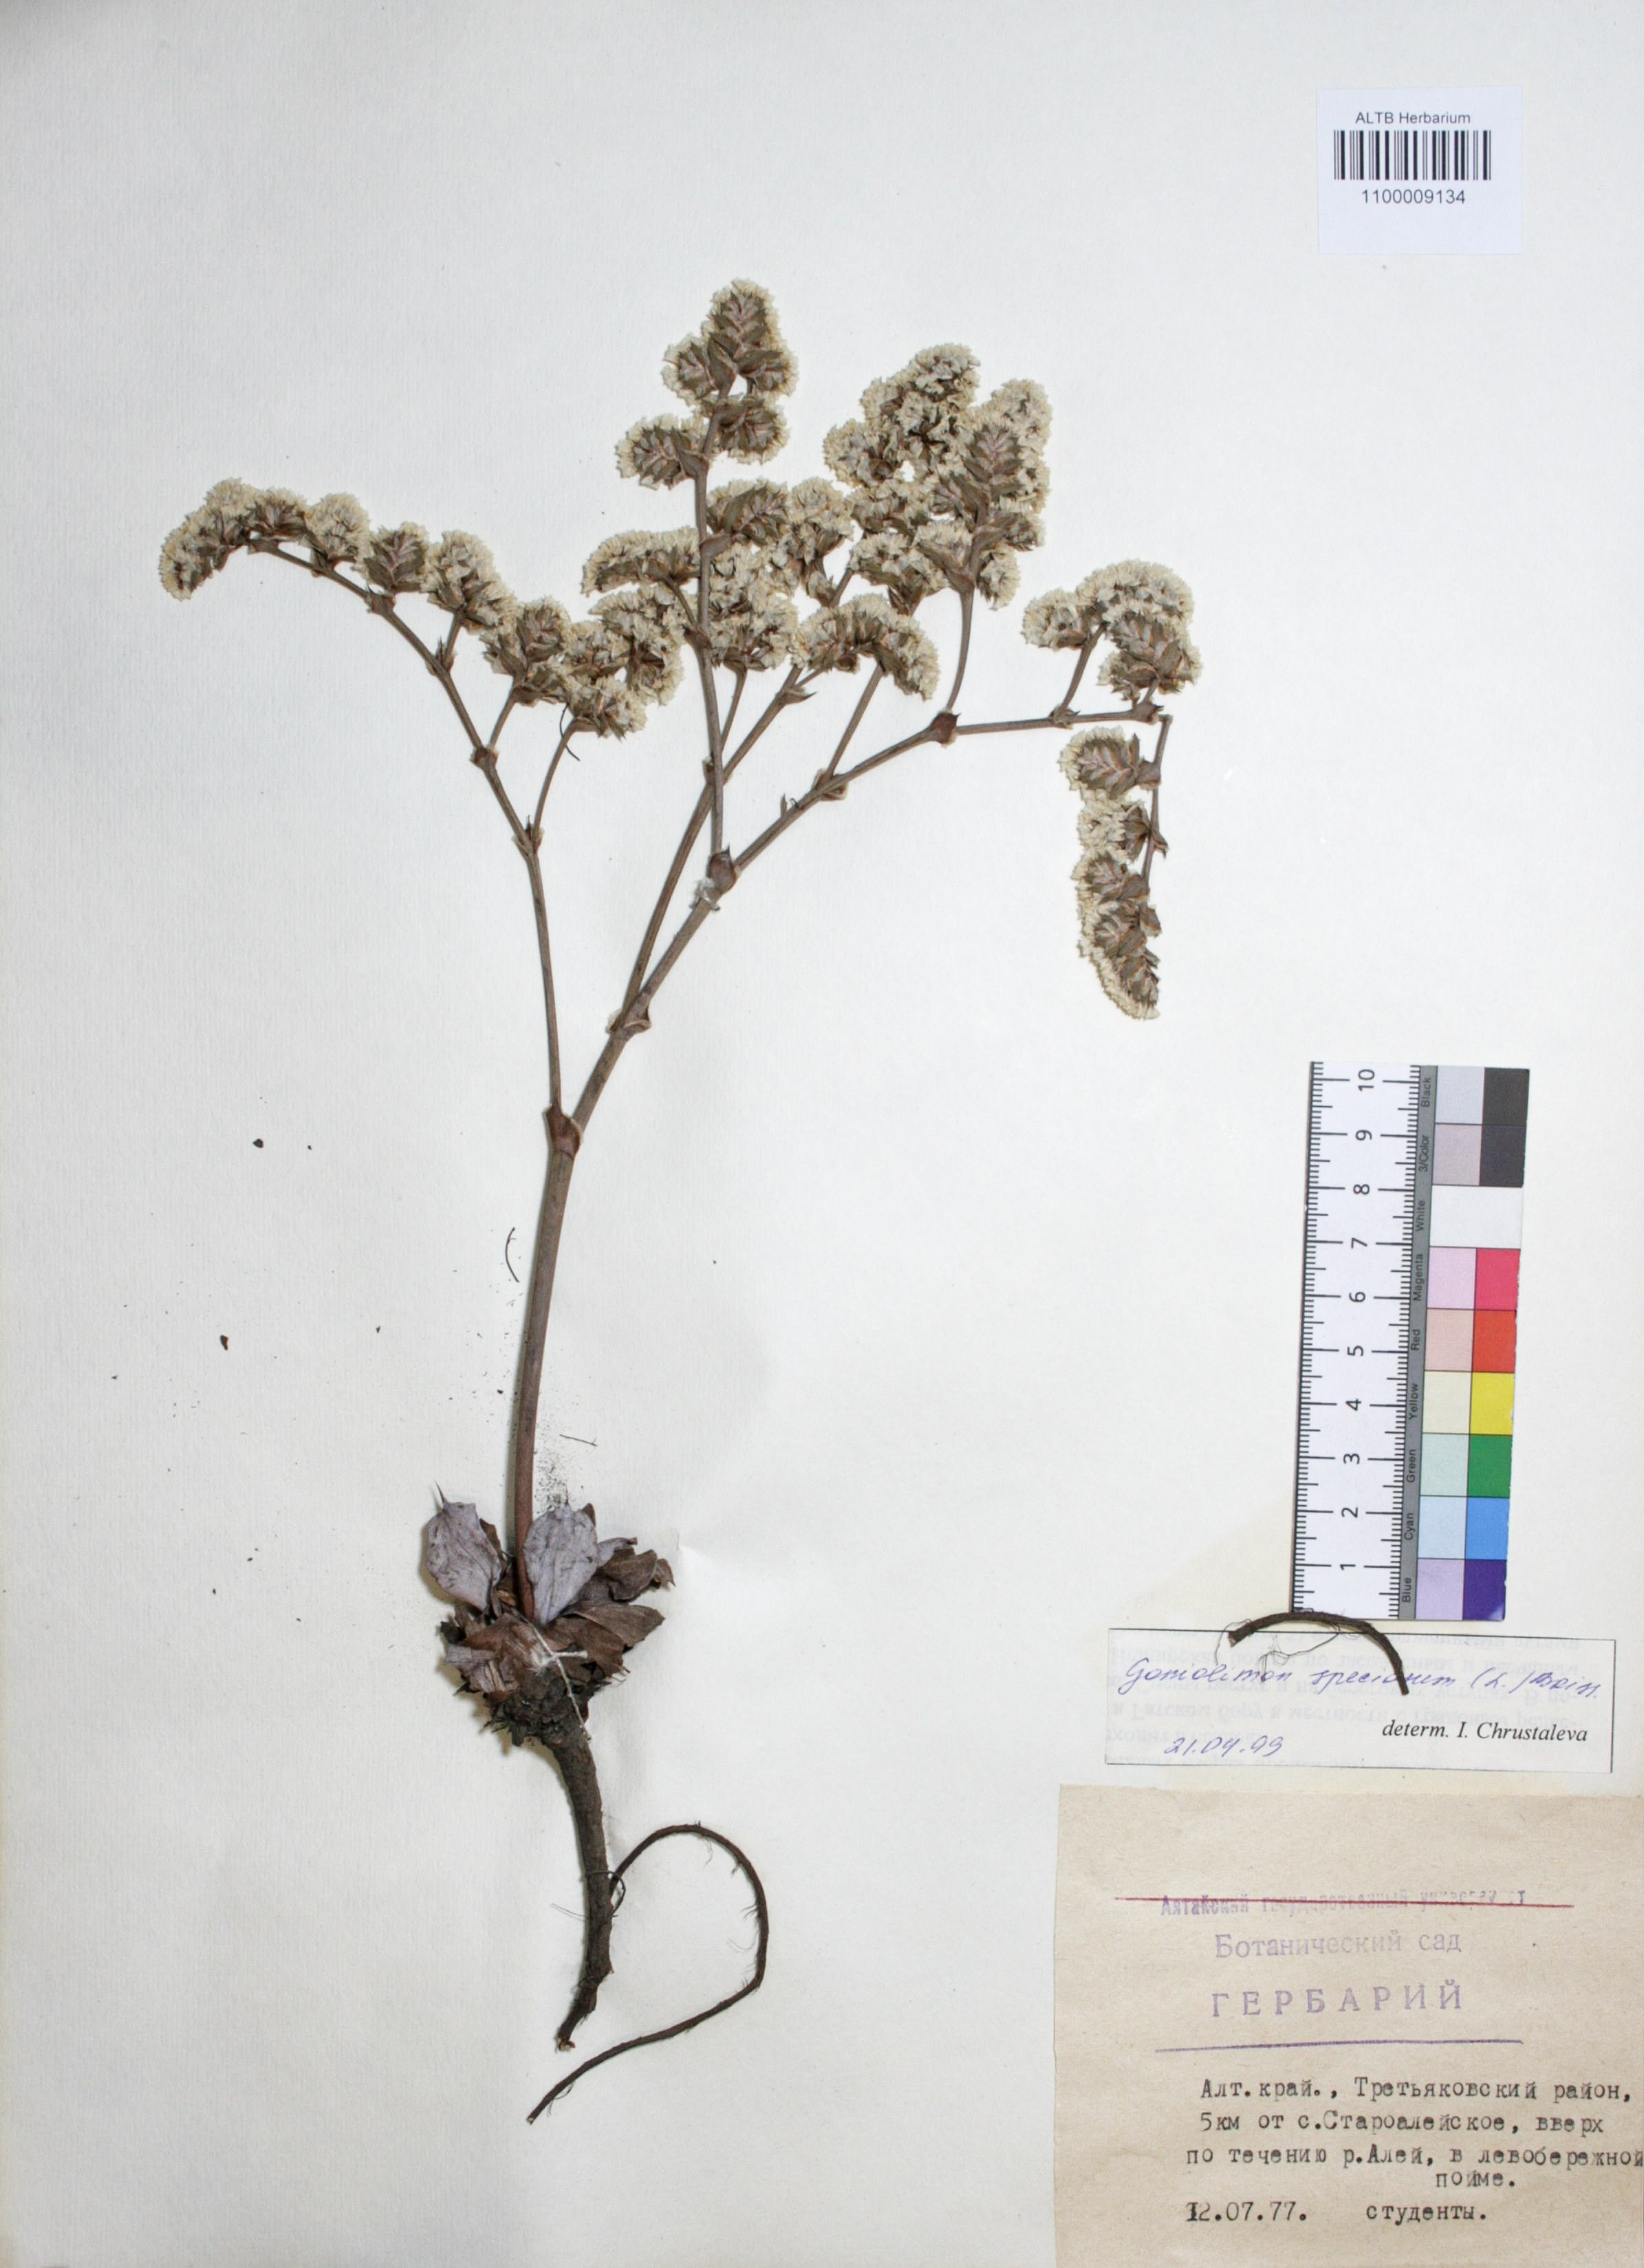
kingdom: Plantae
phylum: Tracheophyta
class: Magnoliopsida
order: Caryophyllales
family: Plumbaginaceae
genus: Goniolimon
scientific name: Goniolimon speciosum
